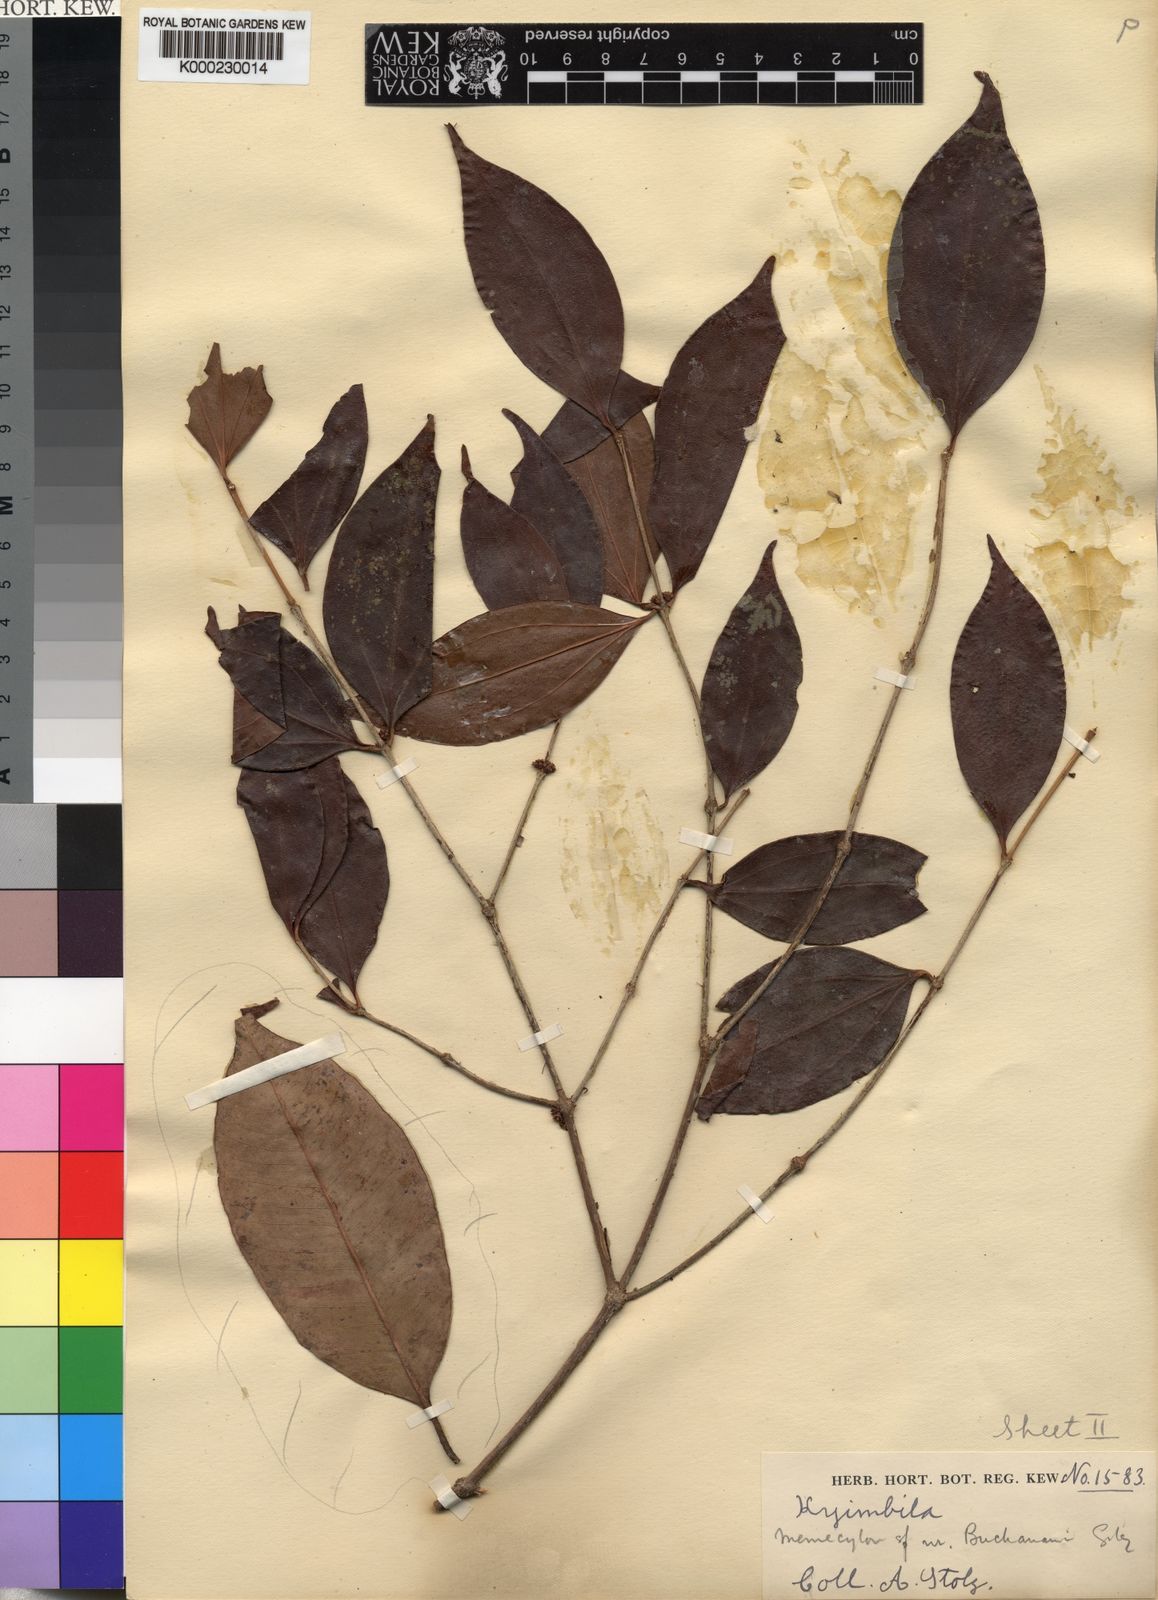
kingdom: Plantae
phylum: Tracheophyta
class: Magnoliopsida
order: Myrtales
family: Melastomataceae
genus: Warneckea
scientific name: Warneckea
